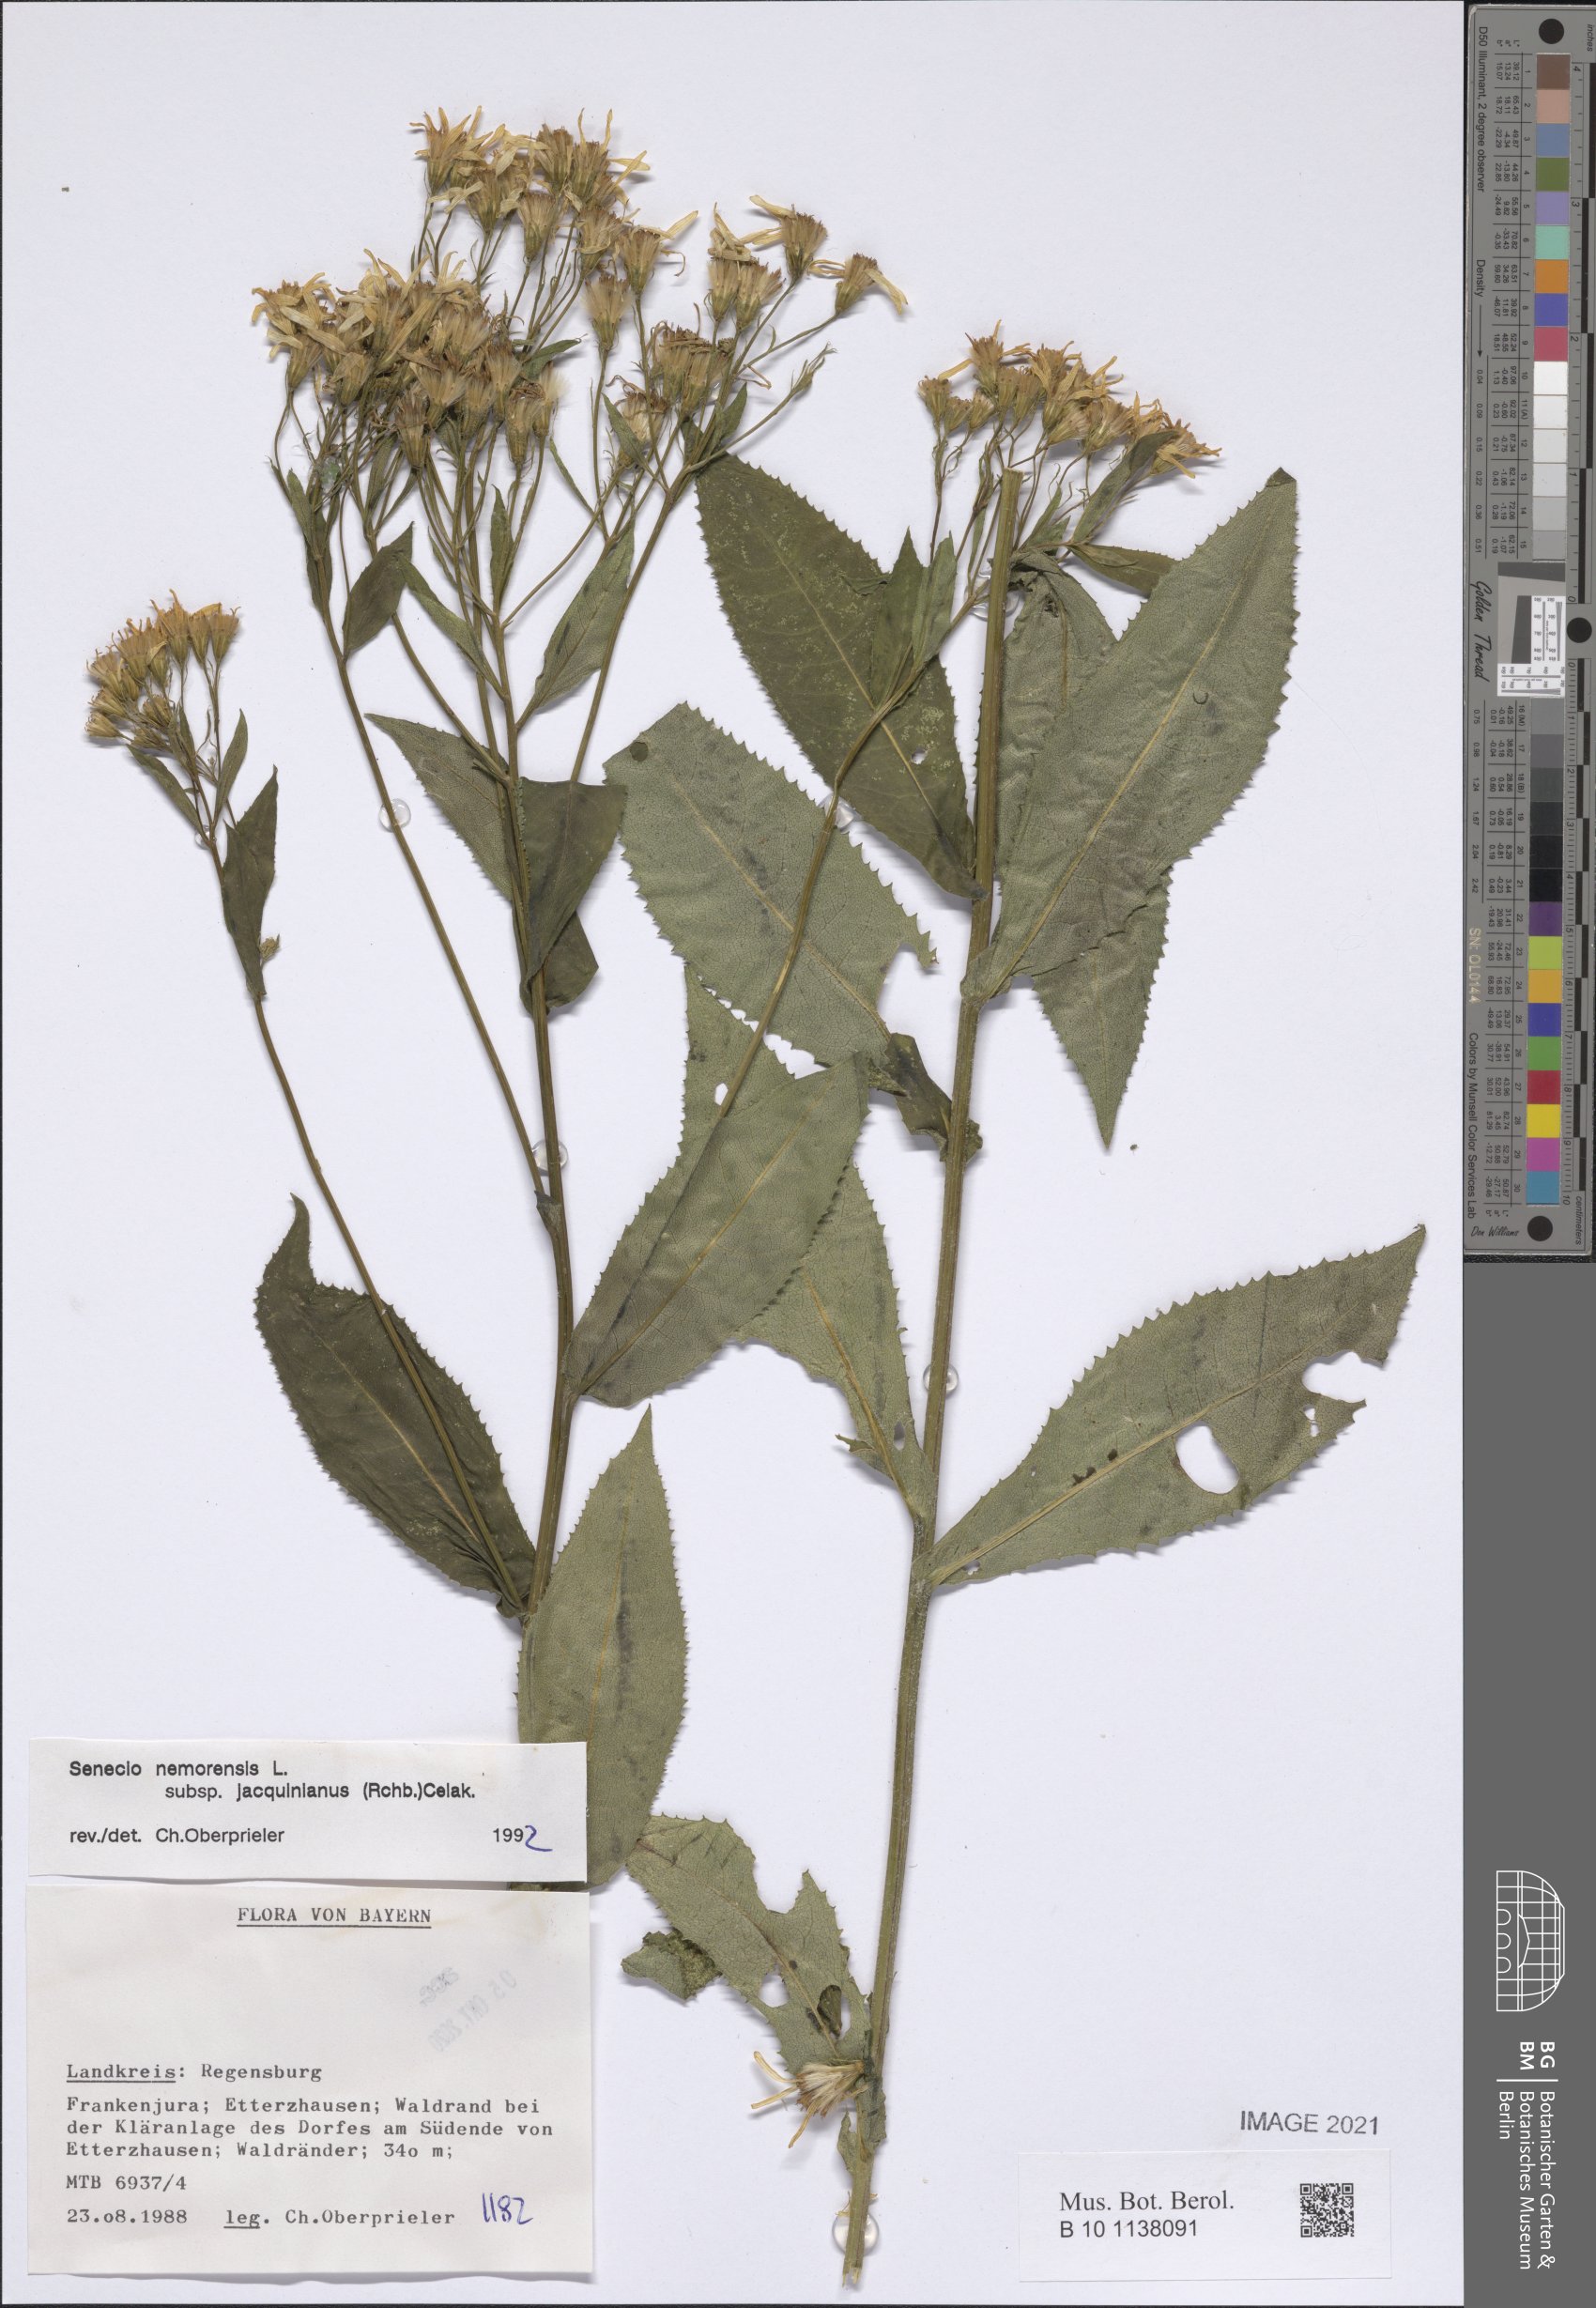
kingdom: Plantae
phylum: Tracheophyta
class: Magnoliopsida
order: Asterales
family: Asteraceae
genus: Senecio
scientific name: Senecio germanicus
